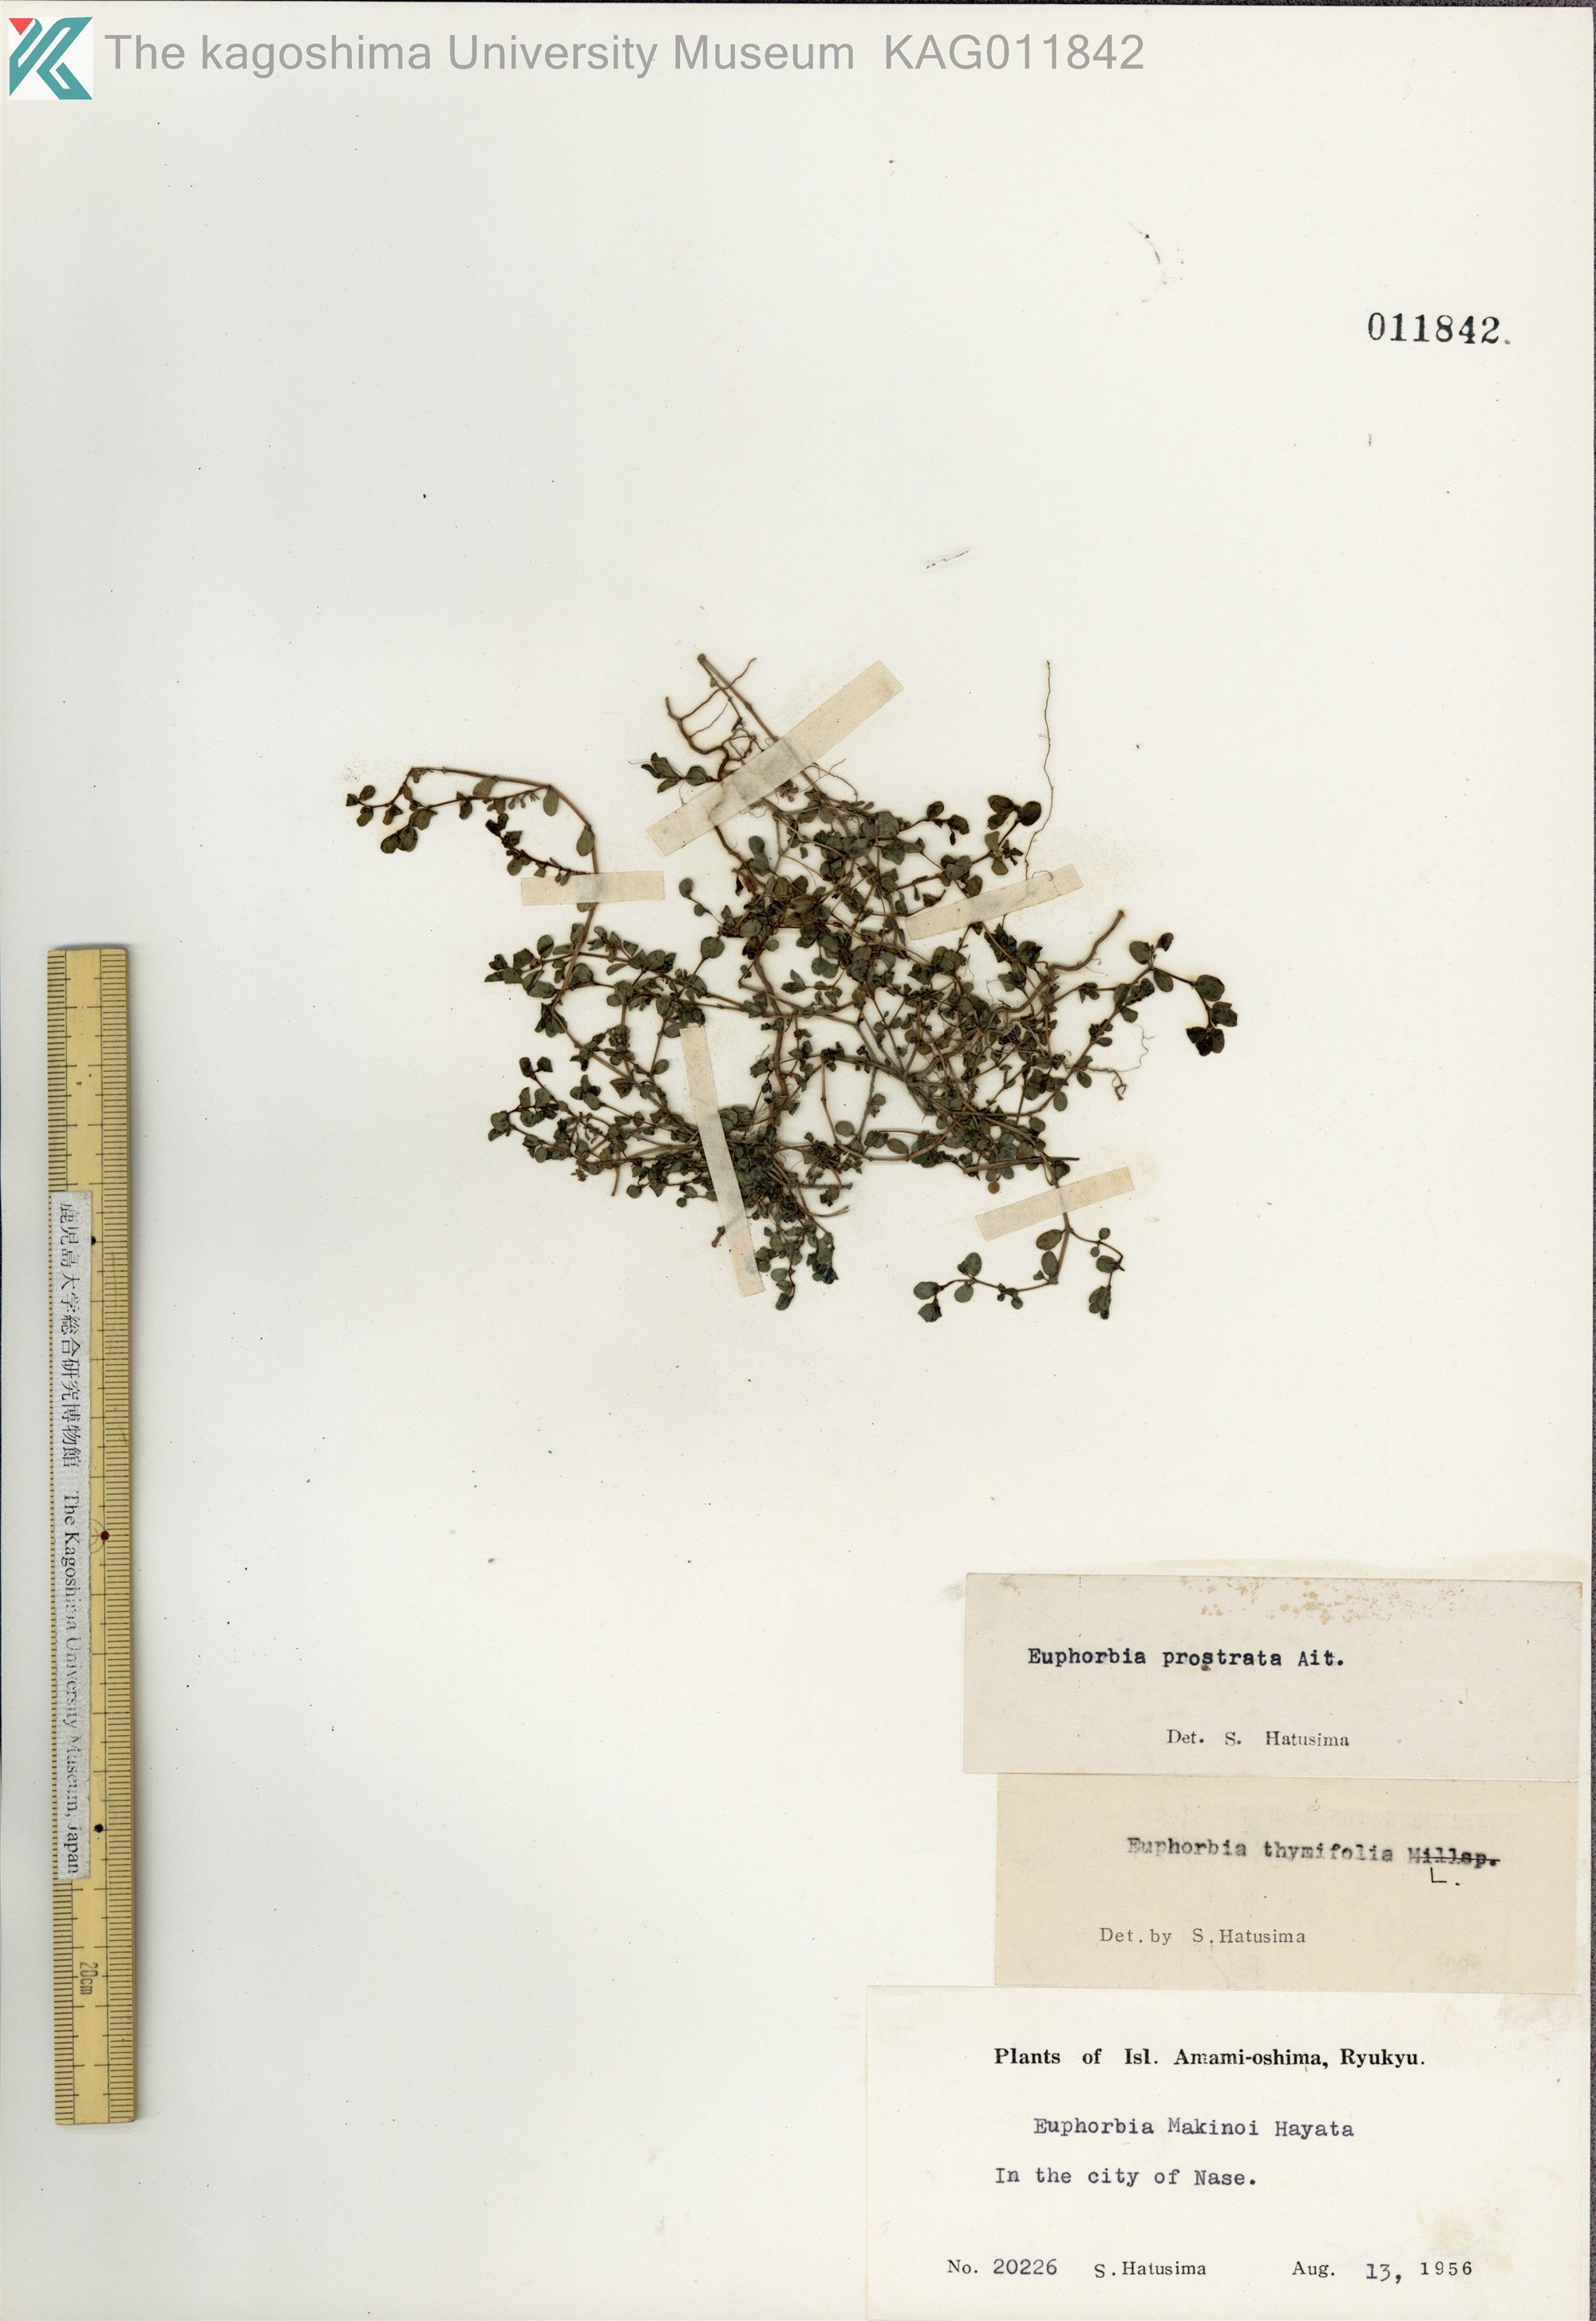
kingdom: Plantae
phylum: Tracheophyta
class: Magnoliopsida
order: Malpighiales
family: Euphorbiaceae
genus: Euphorbia
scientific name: Euphorbia prostrata
